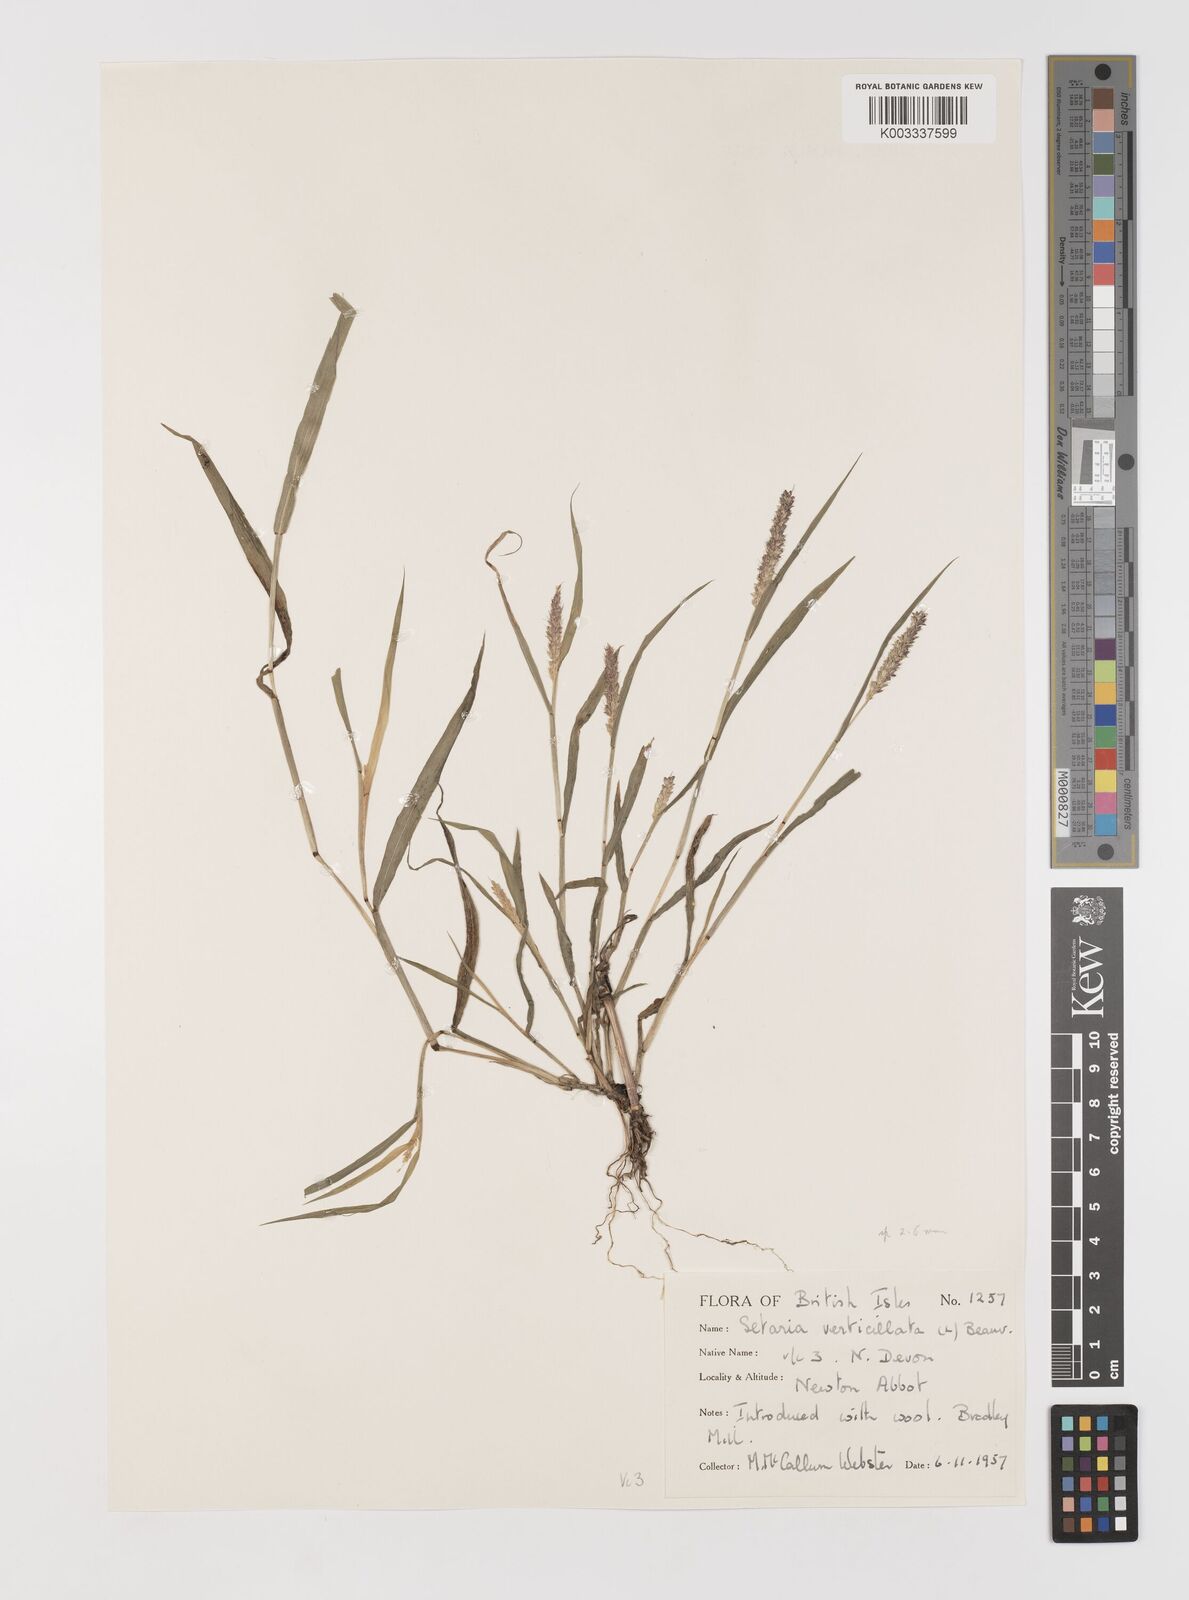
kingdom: Plantae
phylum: Tracheophyta
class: Liliopsida
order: Poales
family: Poaceae
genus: Setaria
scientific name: Setaria verticillata
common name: Hooked bristlegrass
